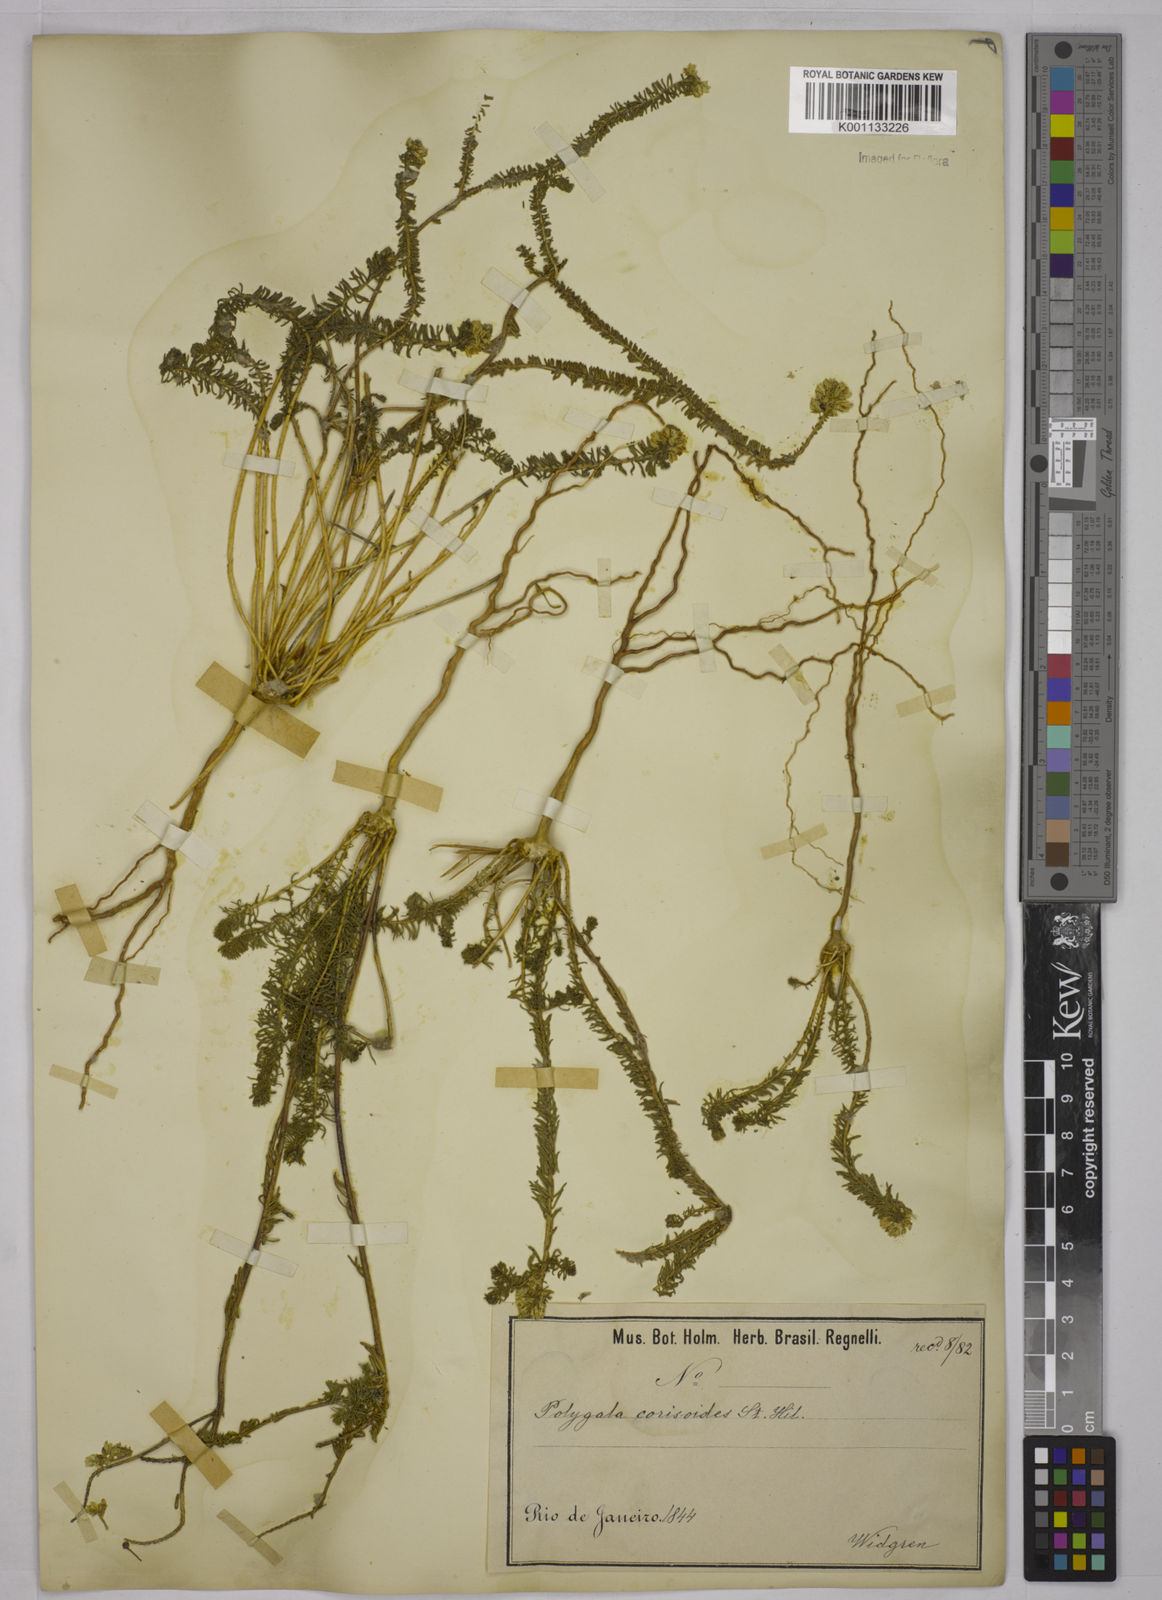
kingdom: Plantae
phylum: Tracheophyta
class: Magnoliopsida
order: Fabales
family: Polygalaceae
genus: Polygala
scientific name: Polygala cyparissias
